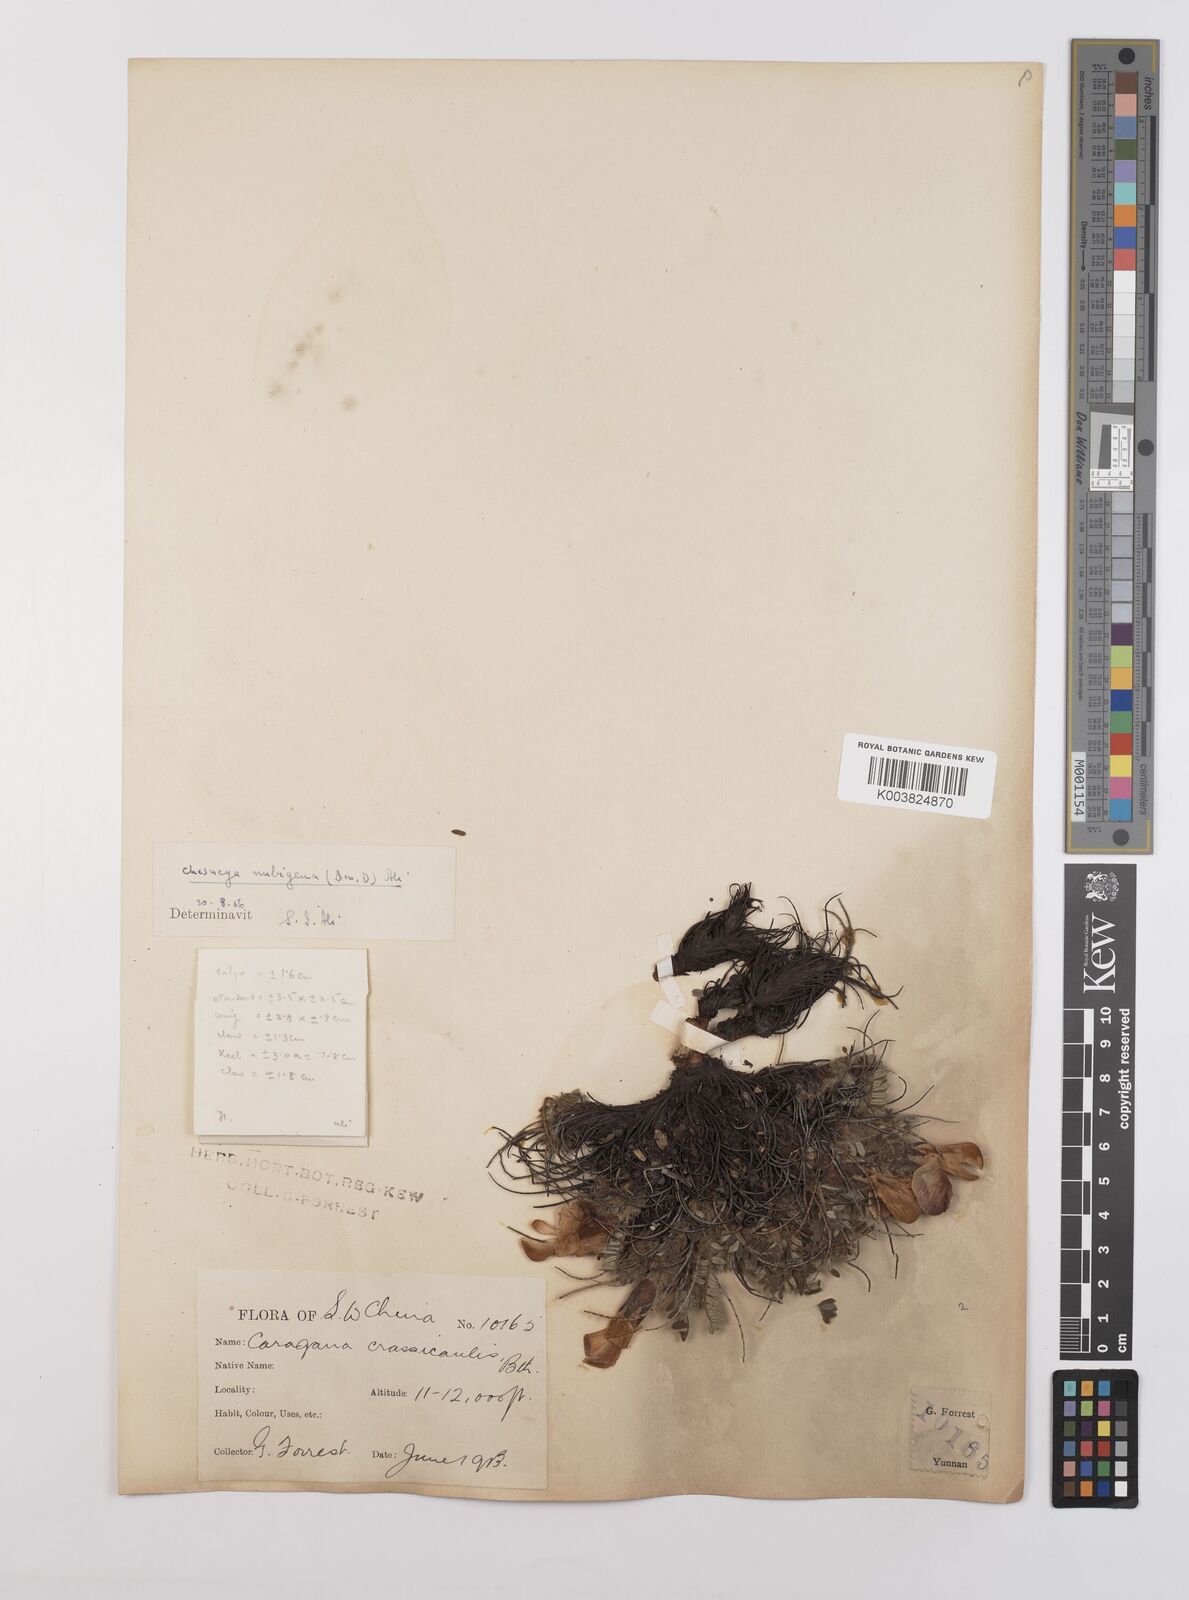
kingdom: Plantae
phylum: Tracheophyta
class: Magnoliopsida
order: Fabales
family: Fabaceae
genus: Chesneya
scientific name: Chesneya nubigena
